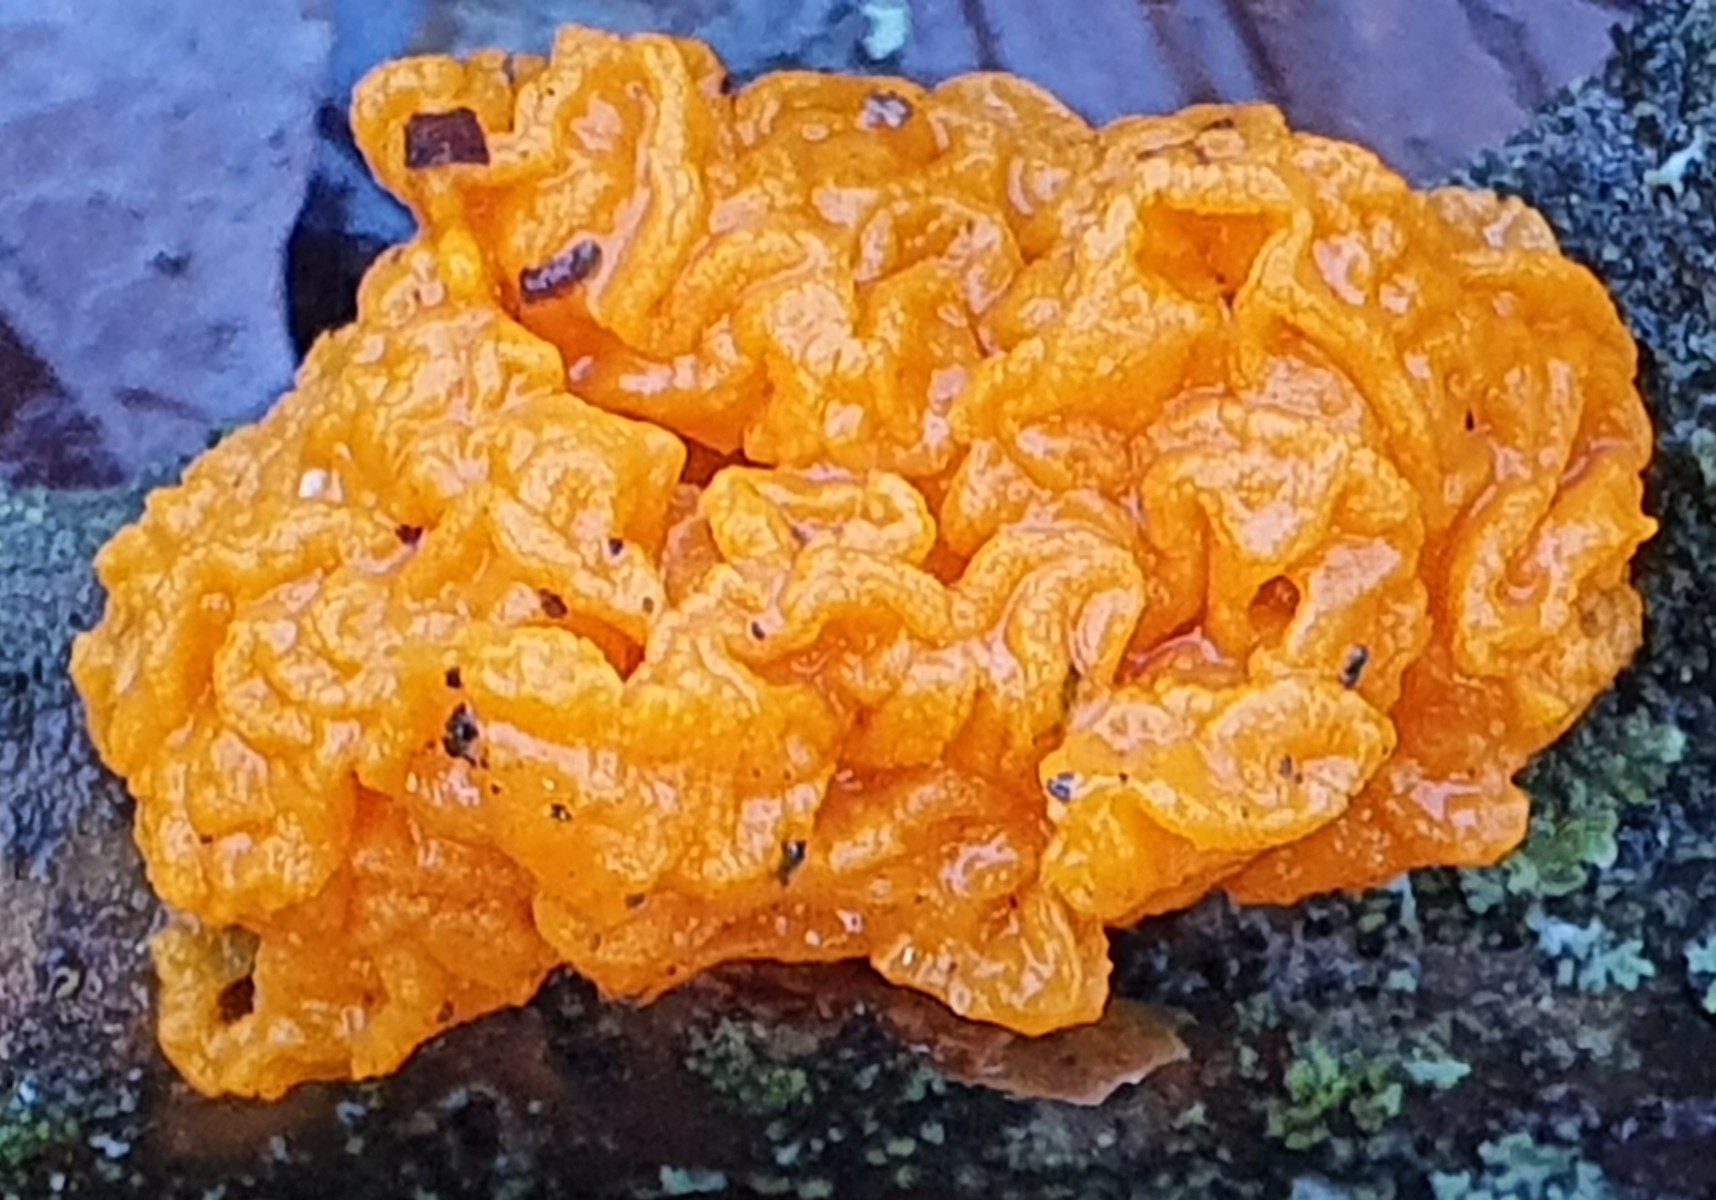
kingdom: Fungi
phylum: Basidiomycota
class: Tremellomycetes
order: Tremellales
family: Tremellaceae
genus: Tremella
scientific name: Tremella mesenterica
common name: gul bævresvamp
